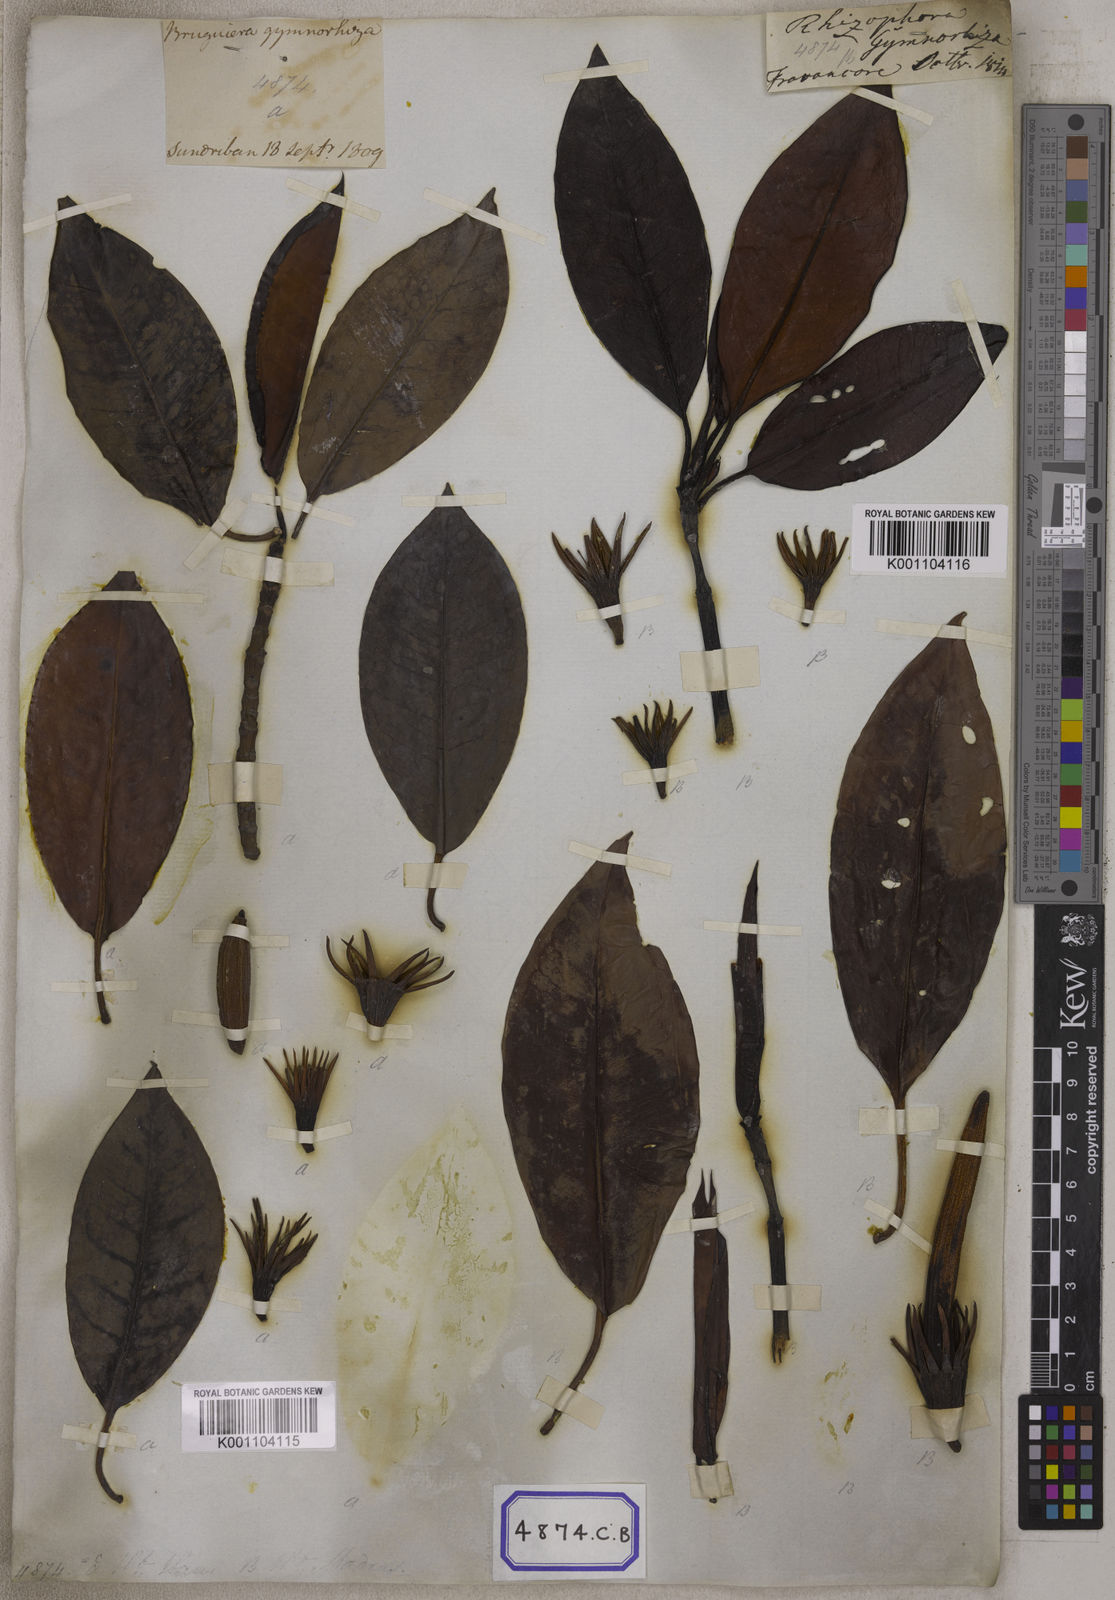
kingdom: Plantae
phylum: Tracheophyta
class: Magnoliopsida
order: Malpighiales
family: Rhizophoraceae
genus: Bruguiera
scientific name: Bruguiera gymnorhiza
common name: Oriental mangrove
